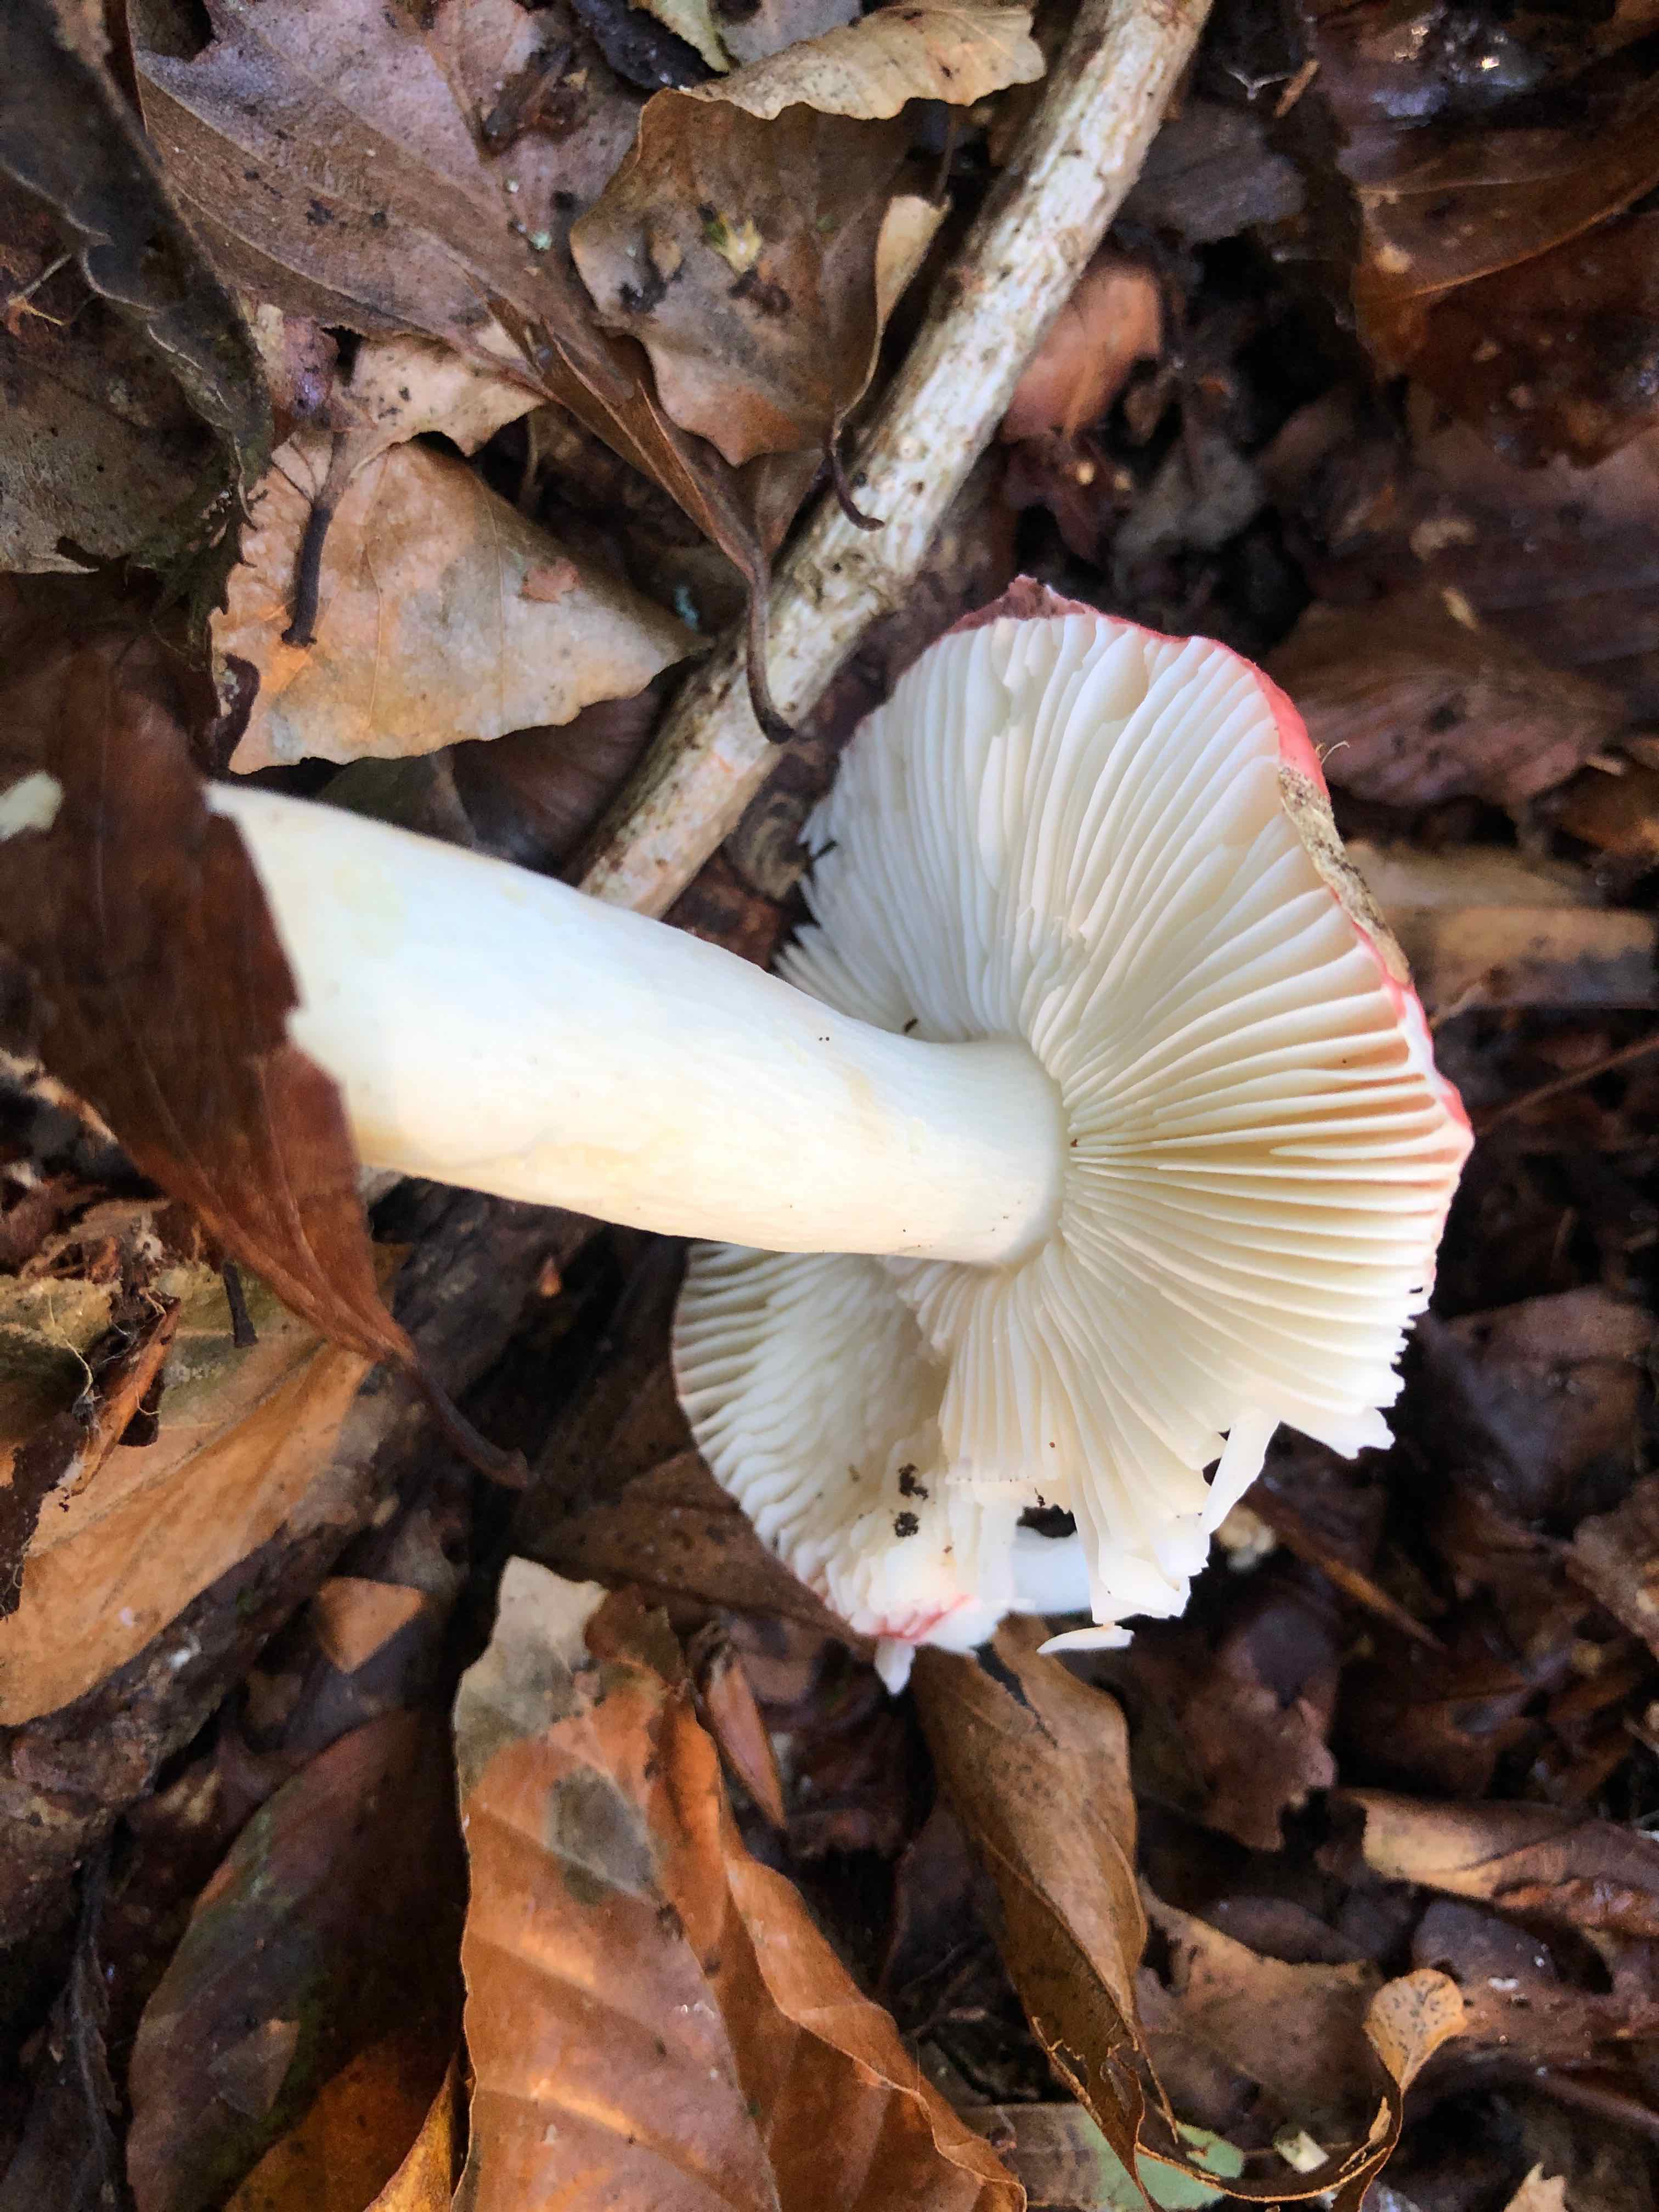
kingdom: Fungi
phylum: Basidiomycota
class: Agaricomycetes
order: Russulales
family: Russulaceae
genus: Russula
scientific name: Russula silvestris
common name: mellemstor gift-skørhat
